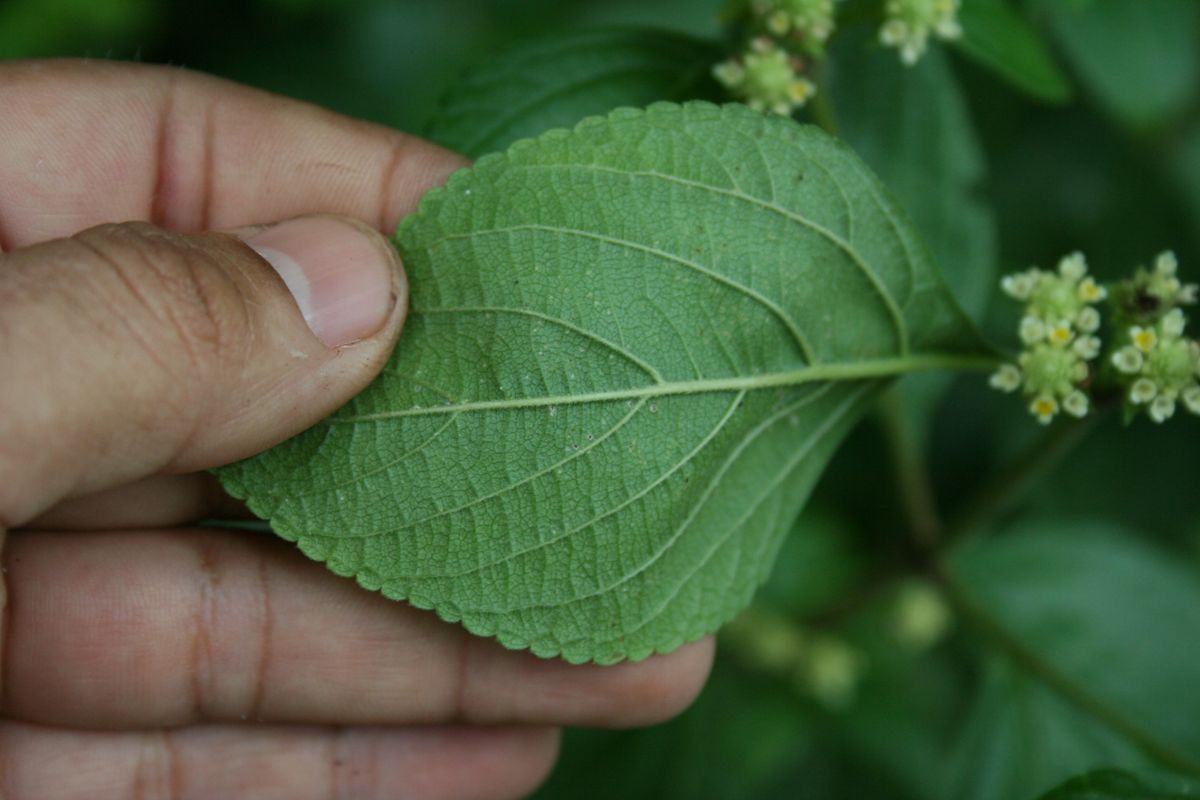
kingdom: Plantae
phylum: Tracheophyta
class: Magnoliopsida
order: Lamiales
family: Verbenaceae
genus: Lippia
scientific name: Lippia cardiostegia
